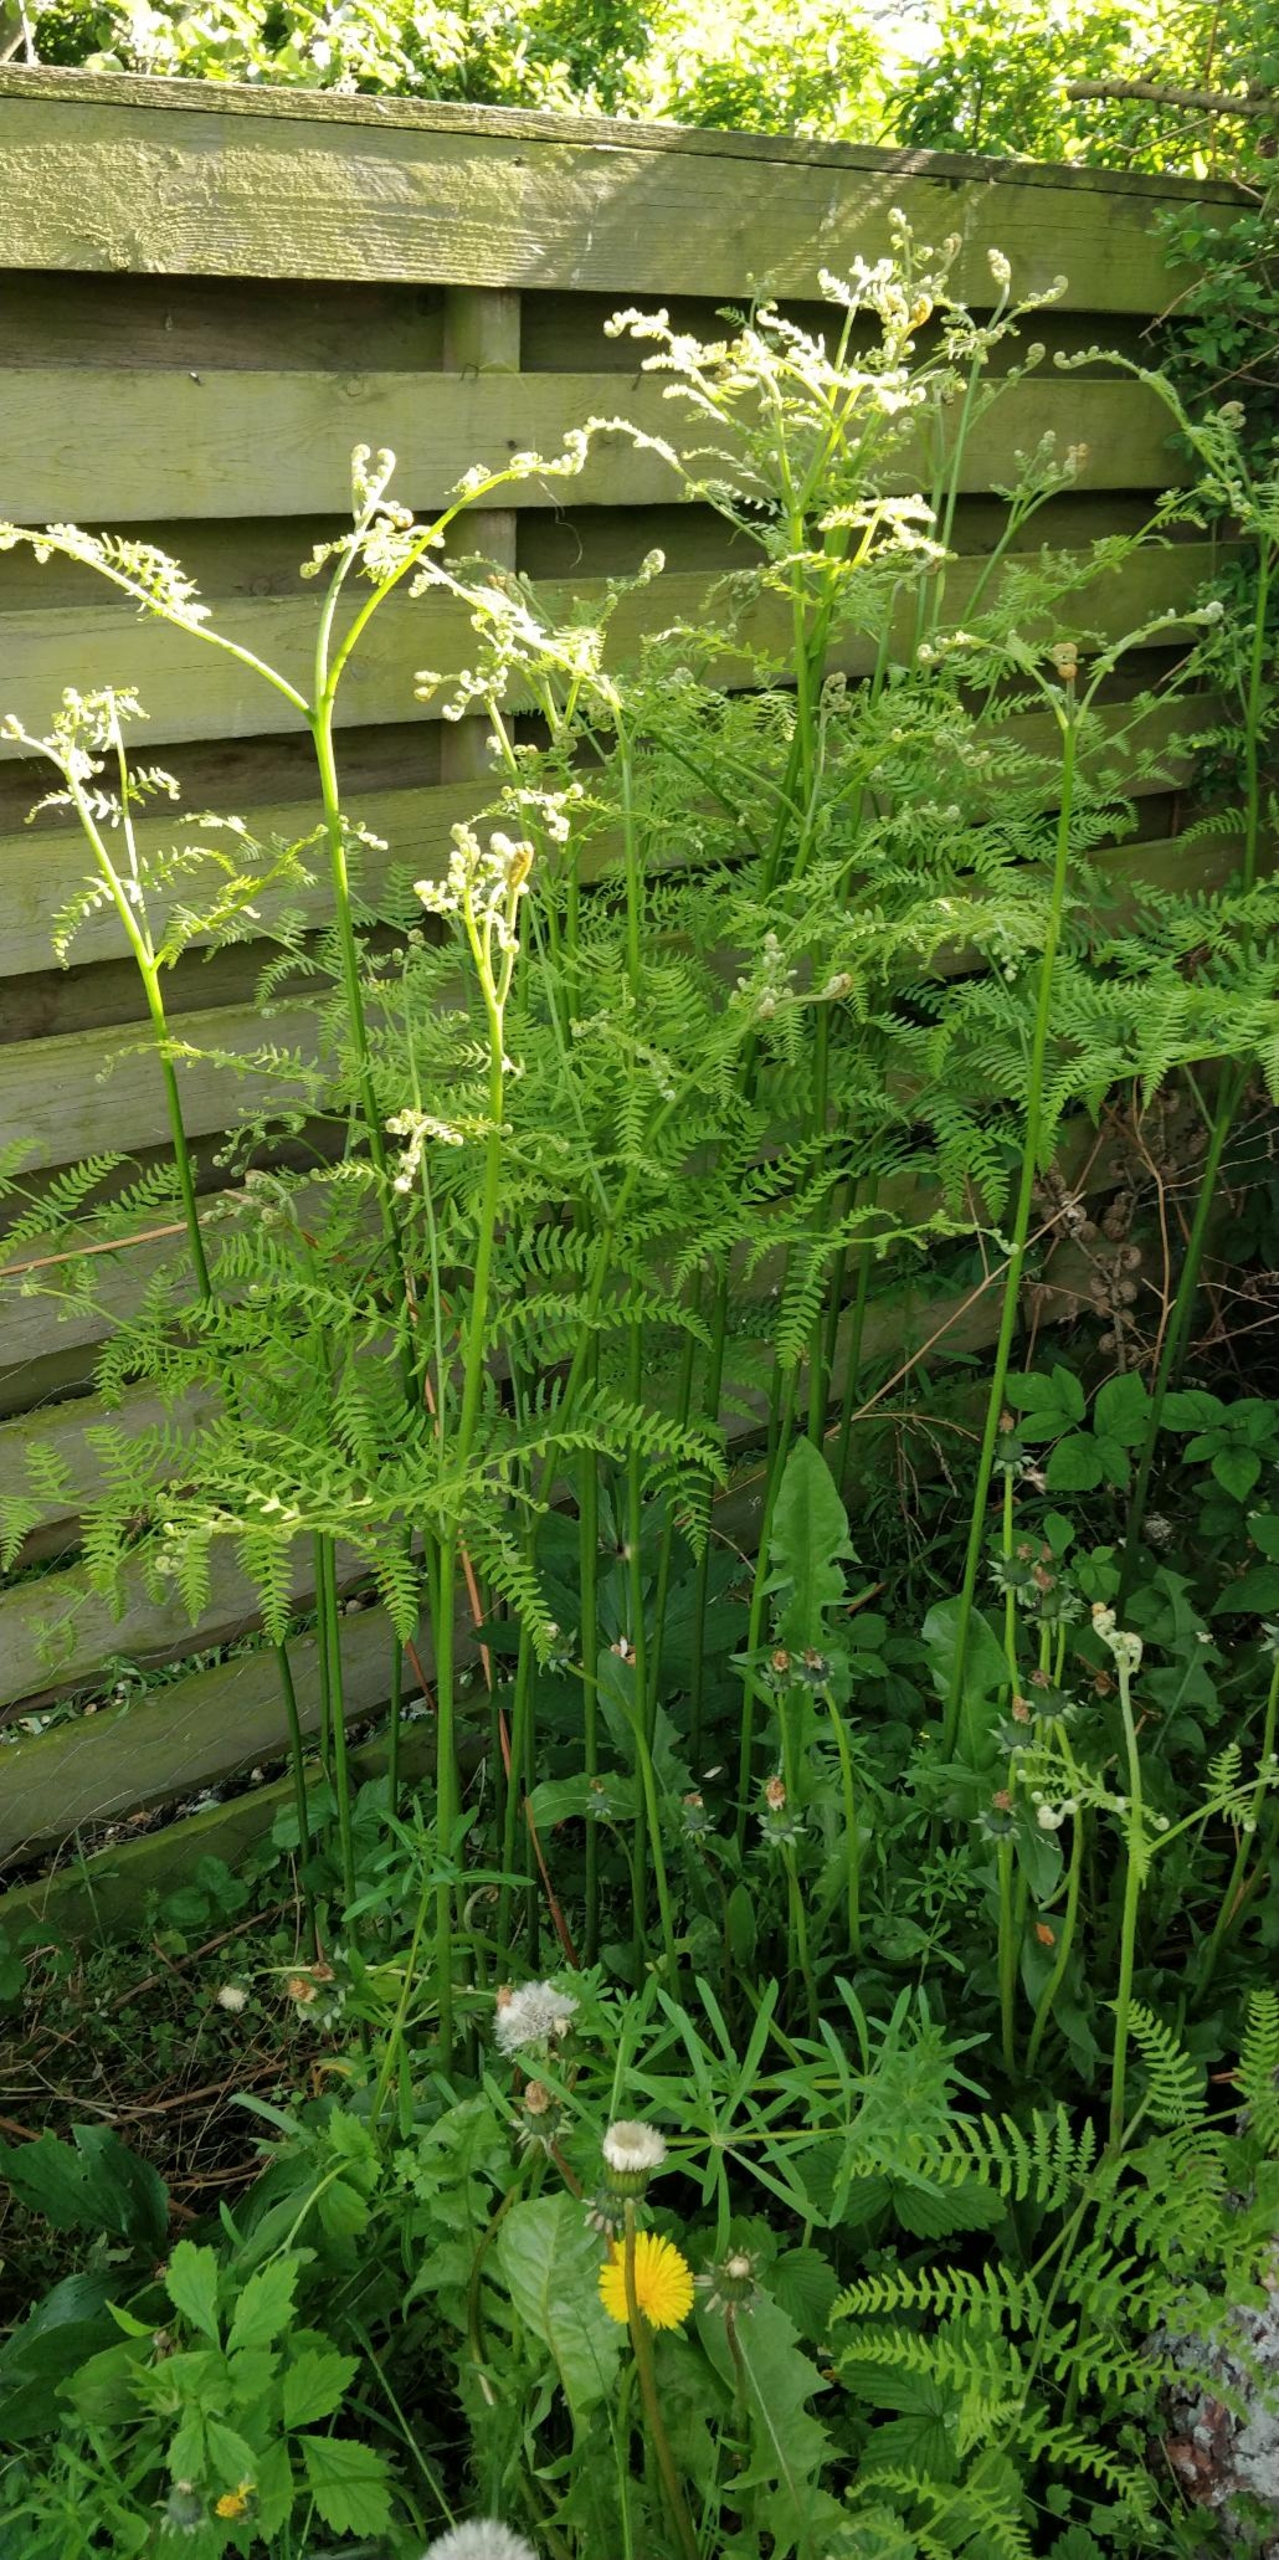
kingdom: Plantae
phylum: Tracheophyta
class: Polypodiopsida
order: Polypodiales
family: Dennstaedtiaceae
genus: Pteridium
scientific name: Pteridium aquilinum
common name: Ørnebregne
